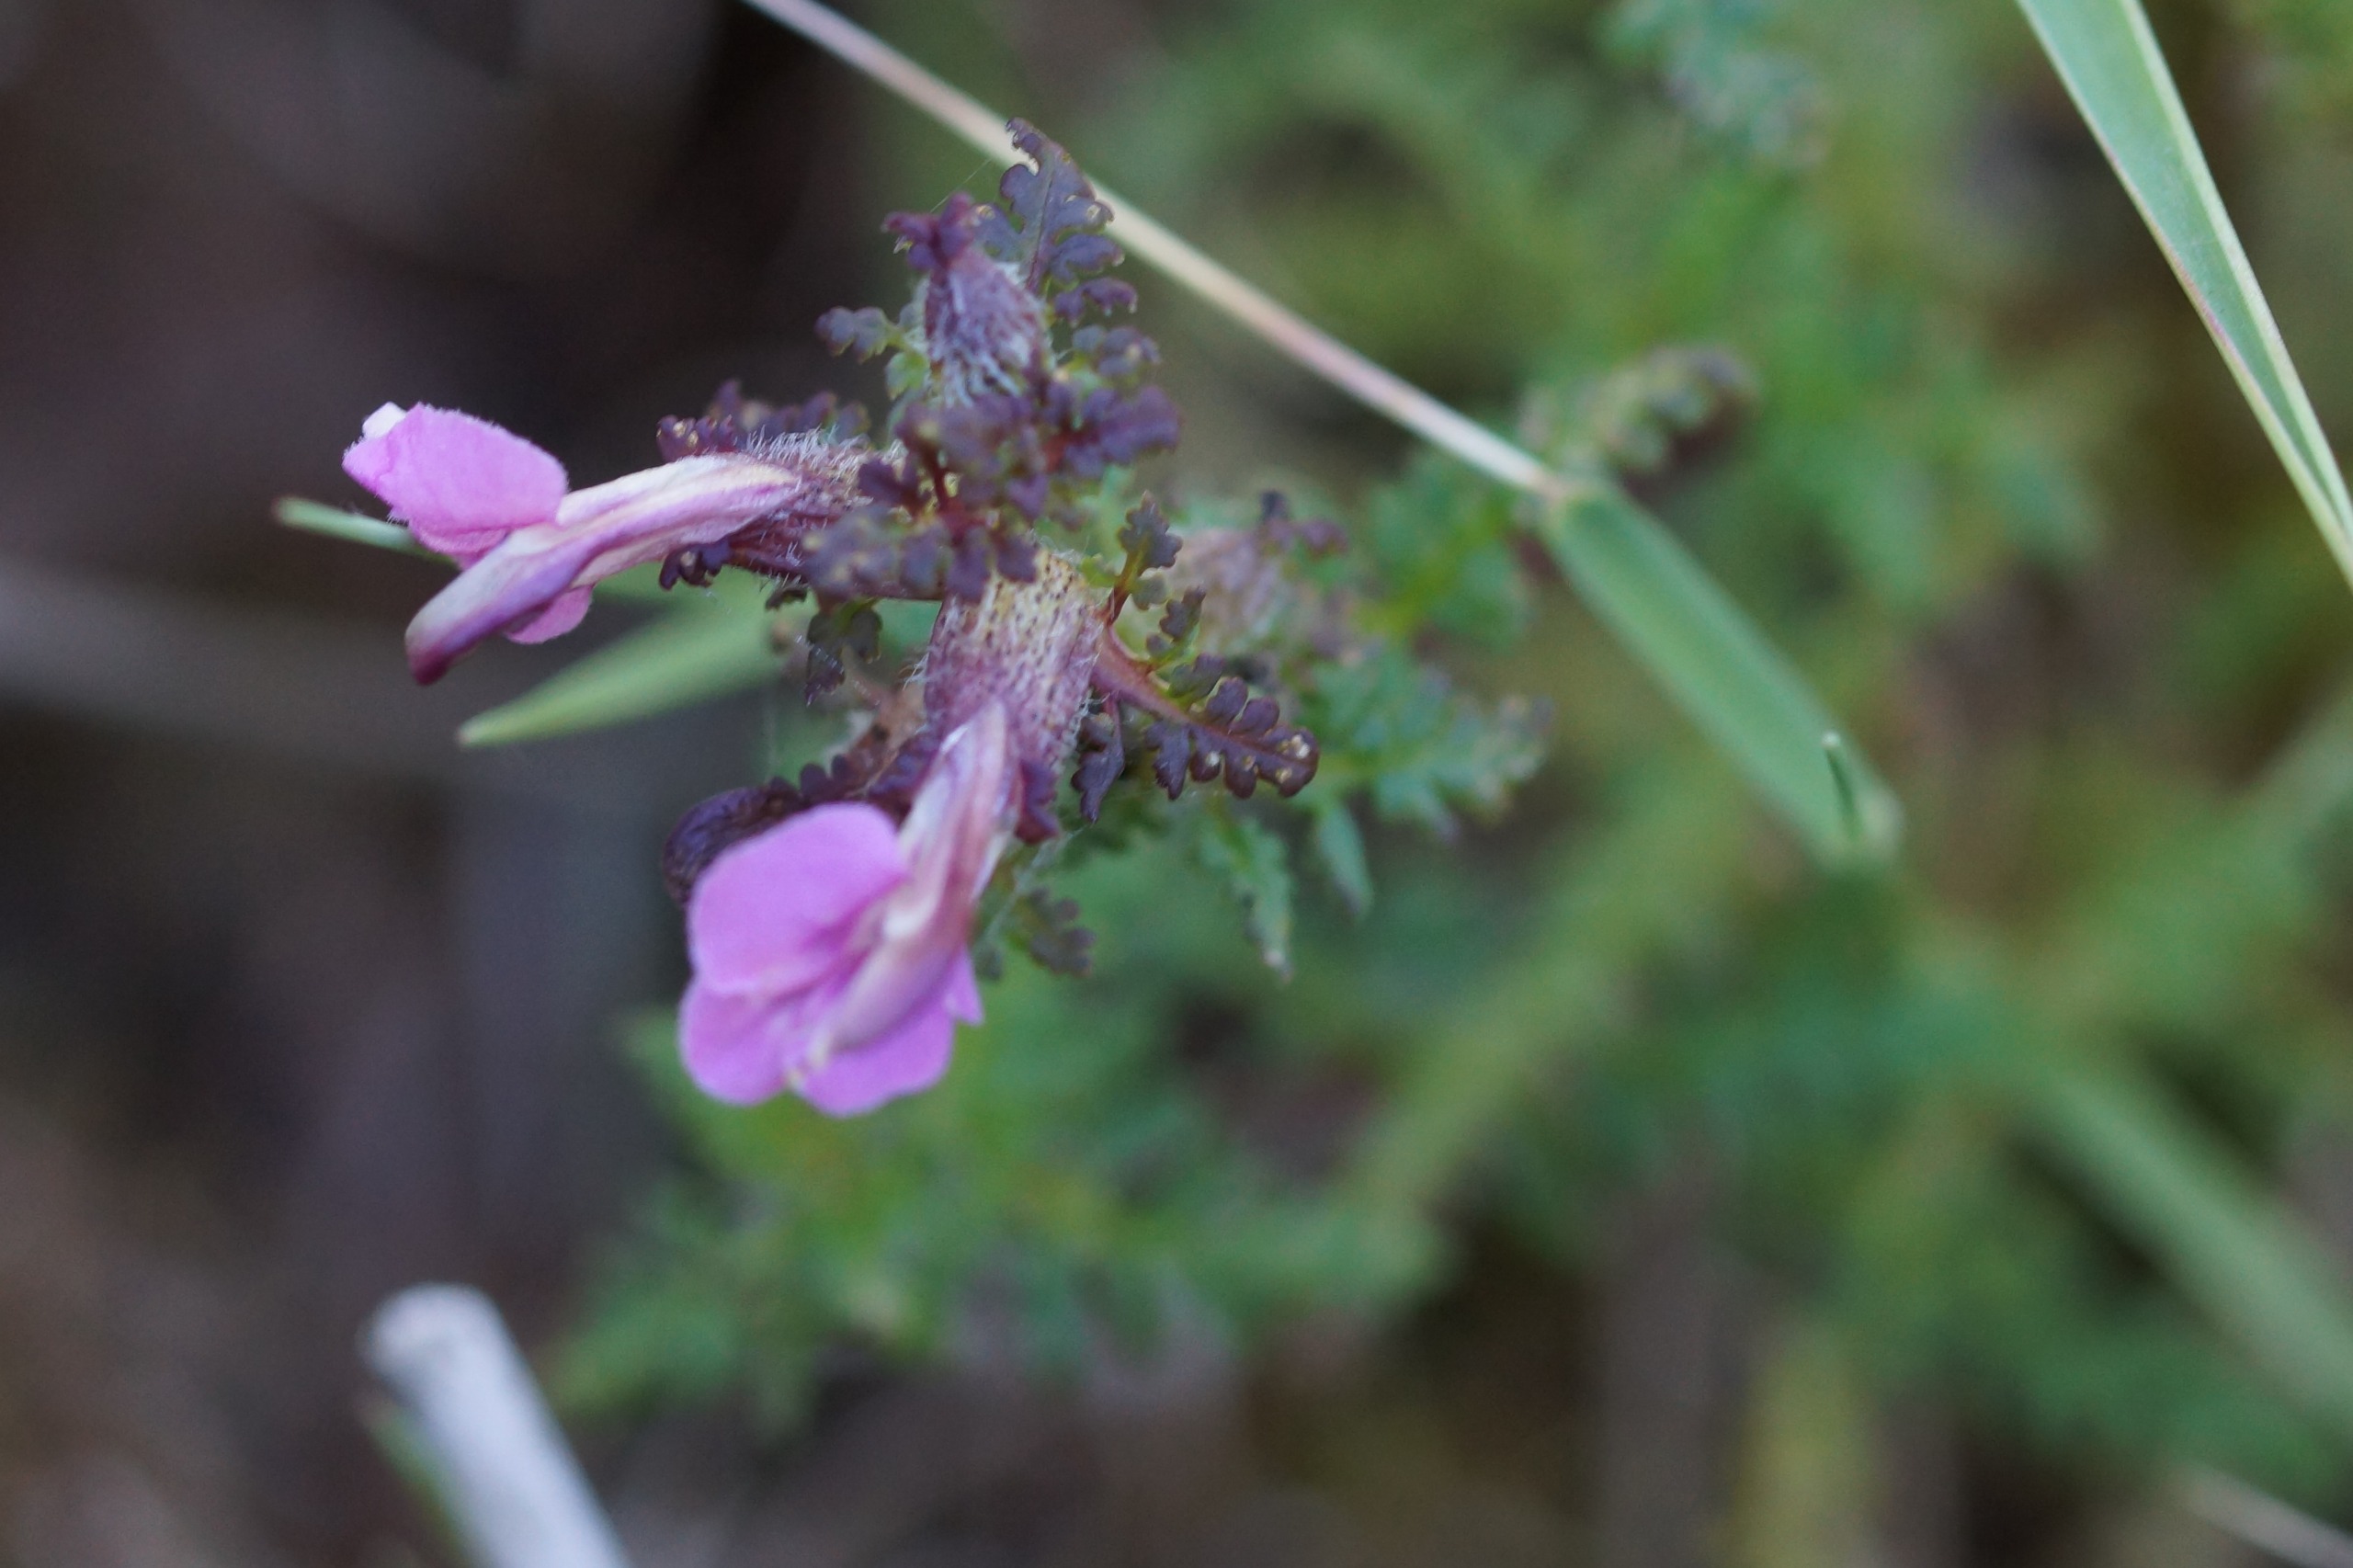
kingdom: Plantae
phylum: Tracheophyta
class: Magnoliopsida
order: Lamiales
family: Orobanchaceae
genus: Pedicularis
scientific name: Pedicularis palustris
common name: Eng-troldurt
